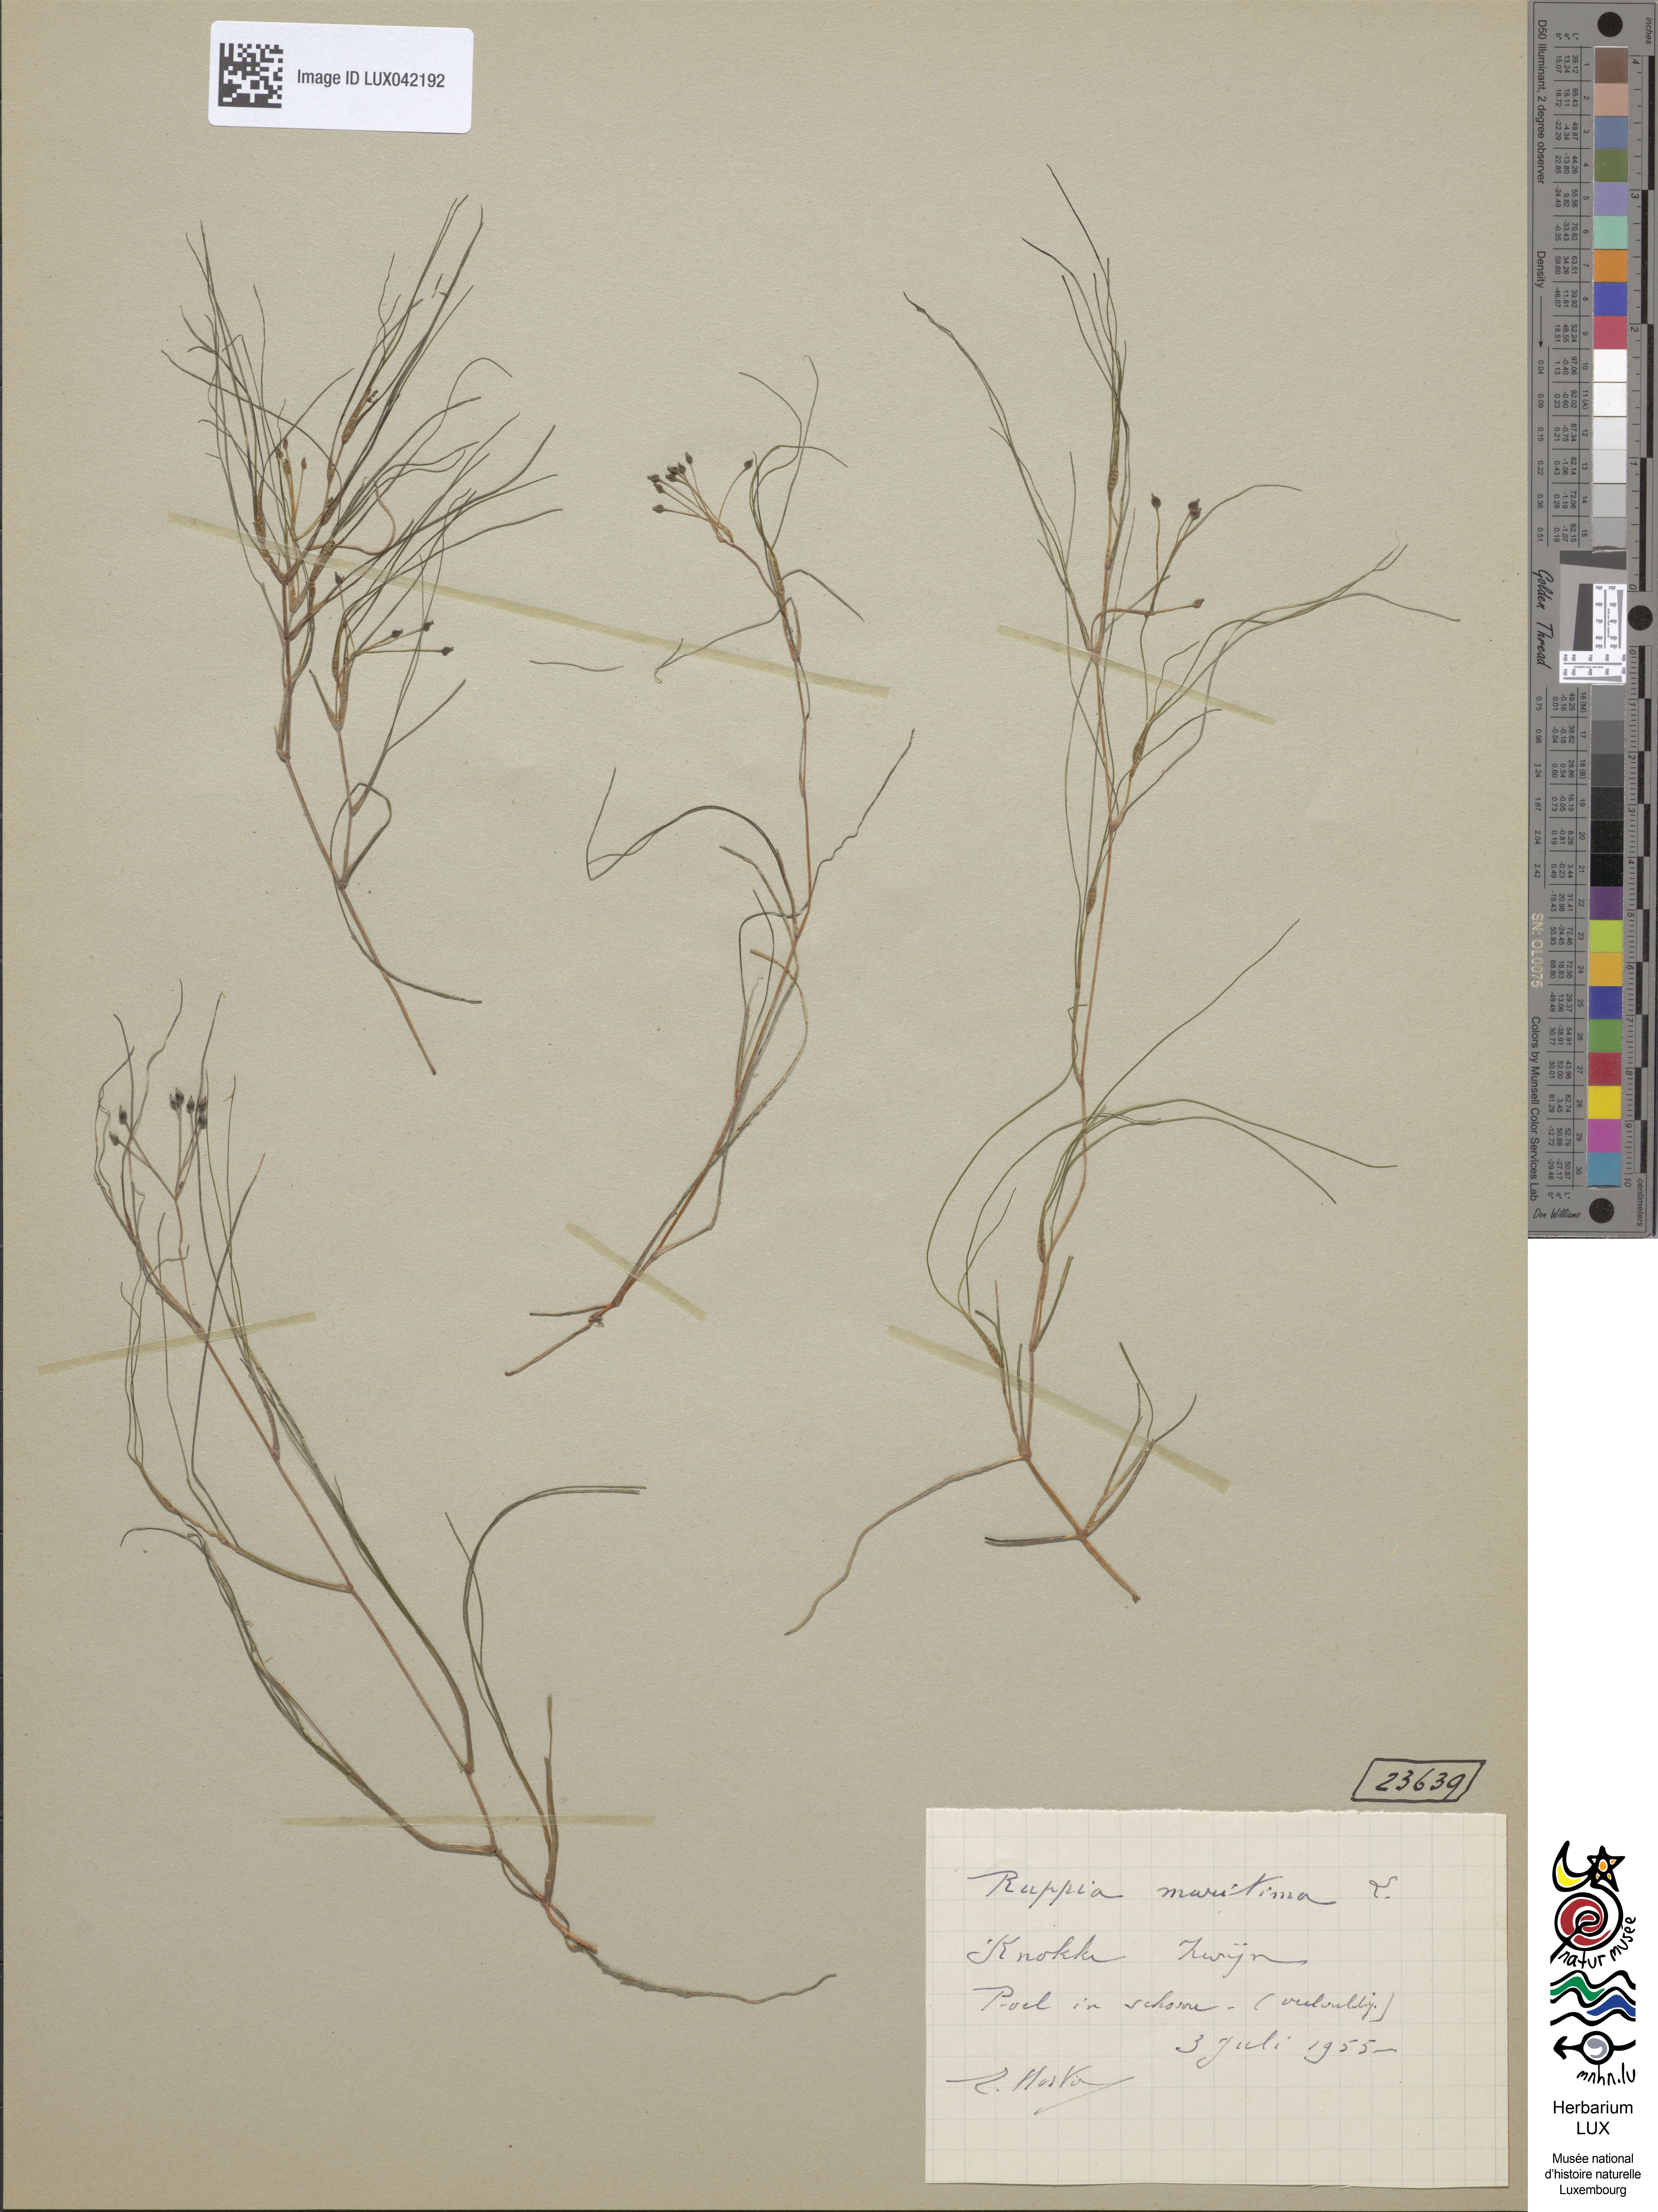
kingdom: Plantae
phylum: Tracheophyta
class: Liliopsida
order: Alismatales
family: Ruppiaceae
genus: Ruppia
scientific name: Ruppia maritima
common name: Beaked tasselweed
